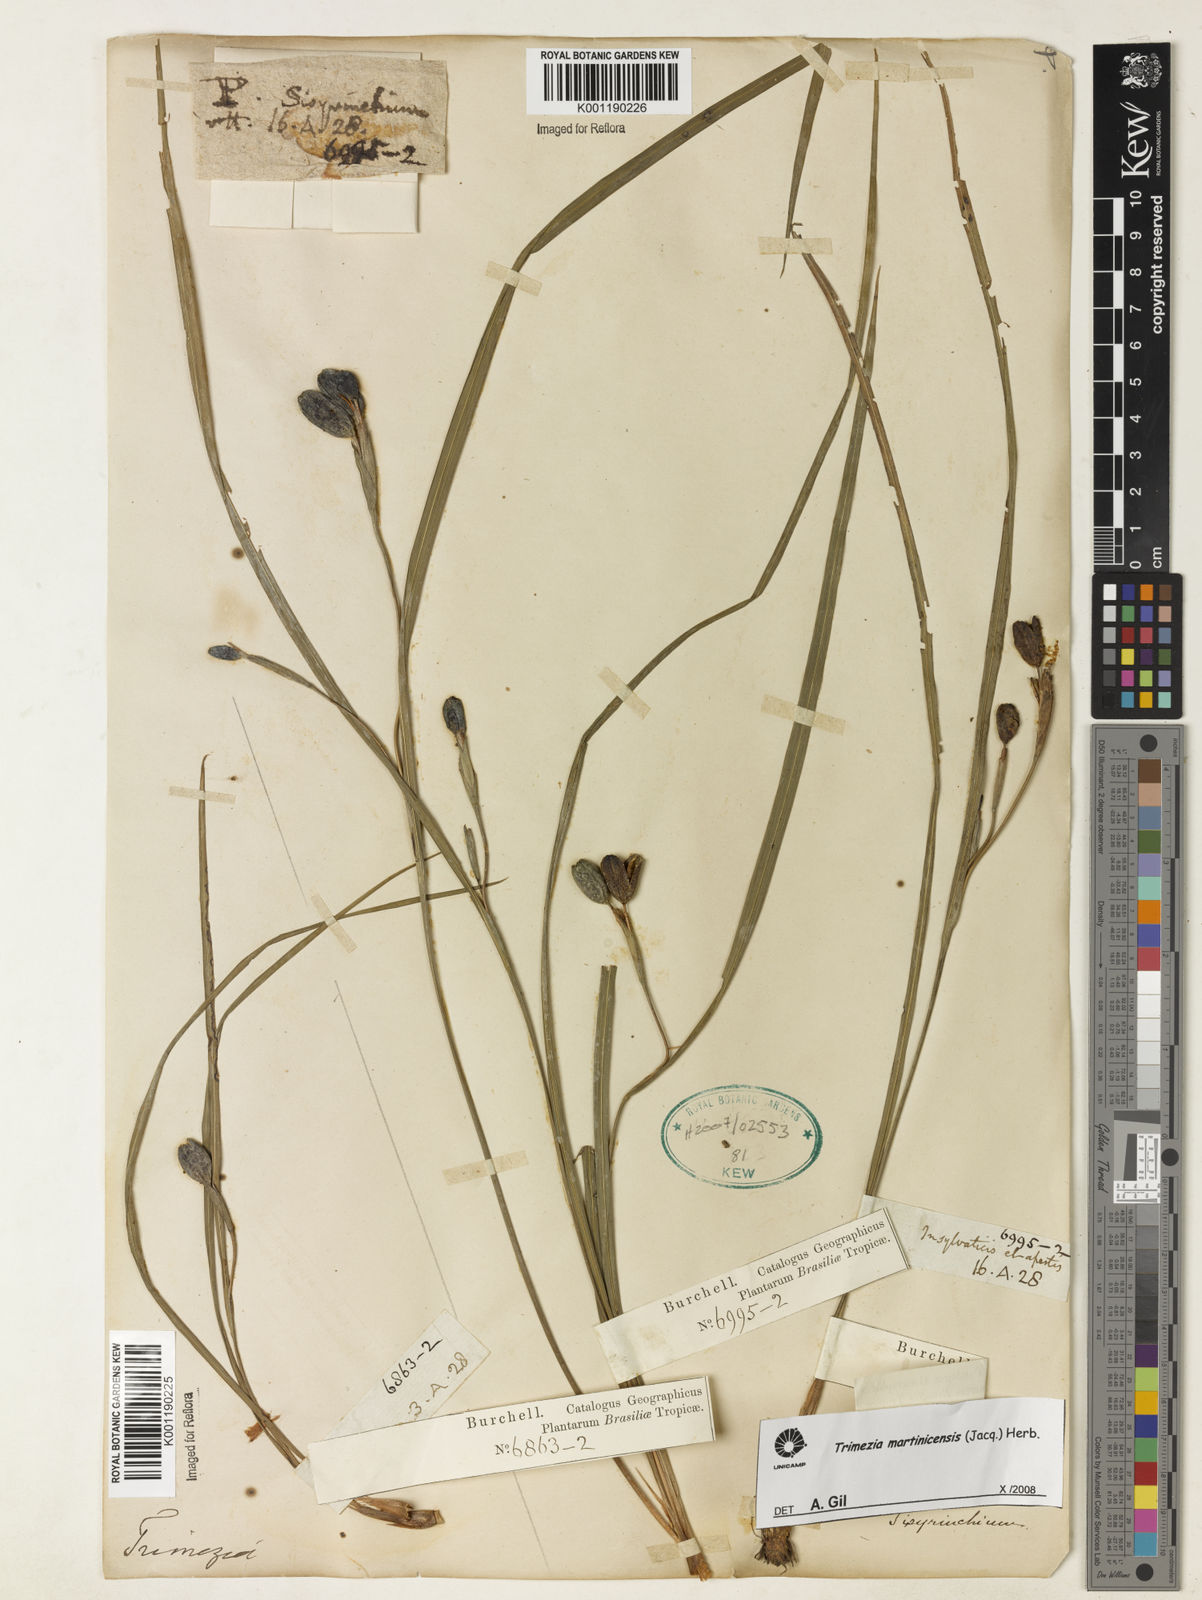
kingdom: Plantae
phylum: Tracheophyta
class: Liliopsida
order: Asparagales
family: Iridaceae
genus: Trimezia
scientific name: Trimezia martinicensis
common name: Martinique trimezia
